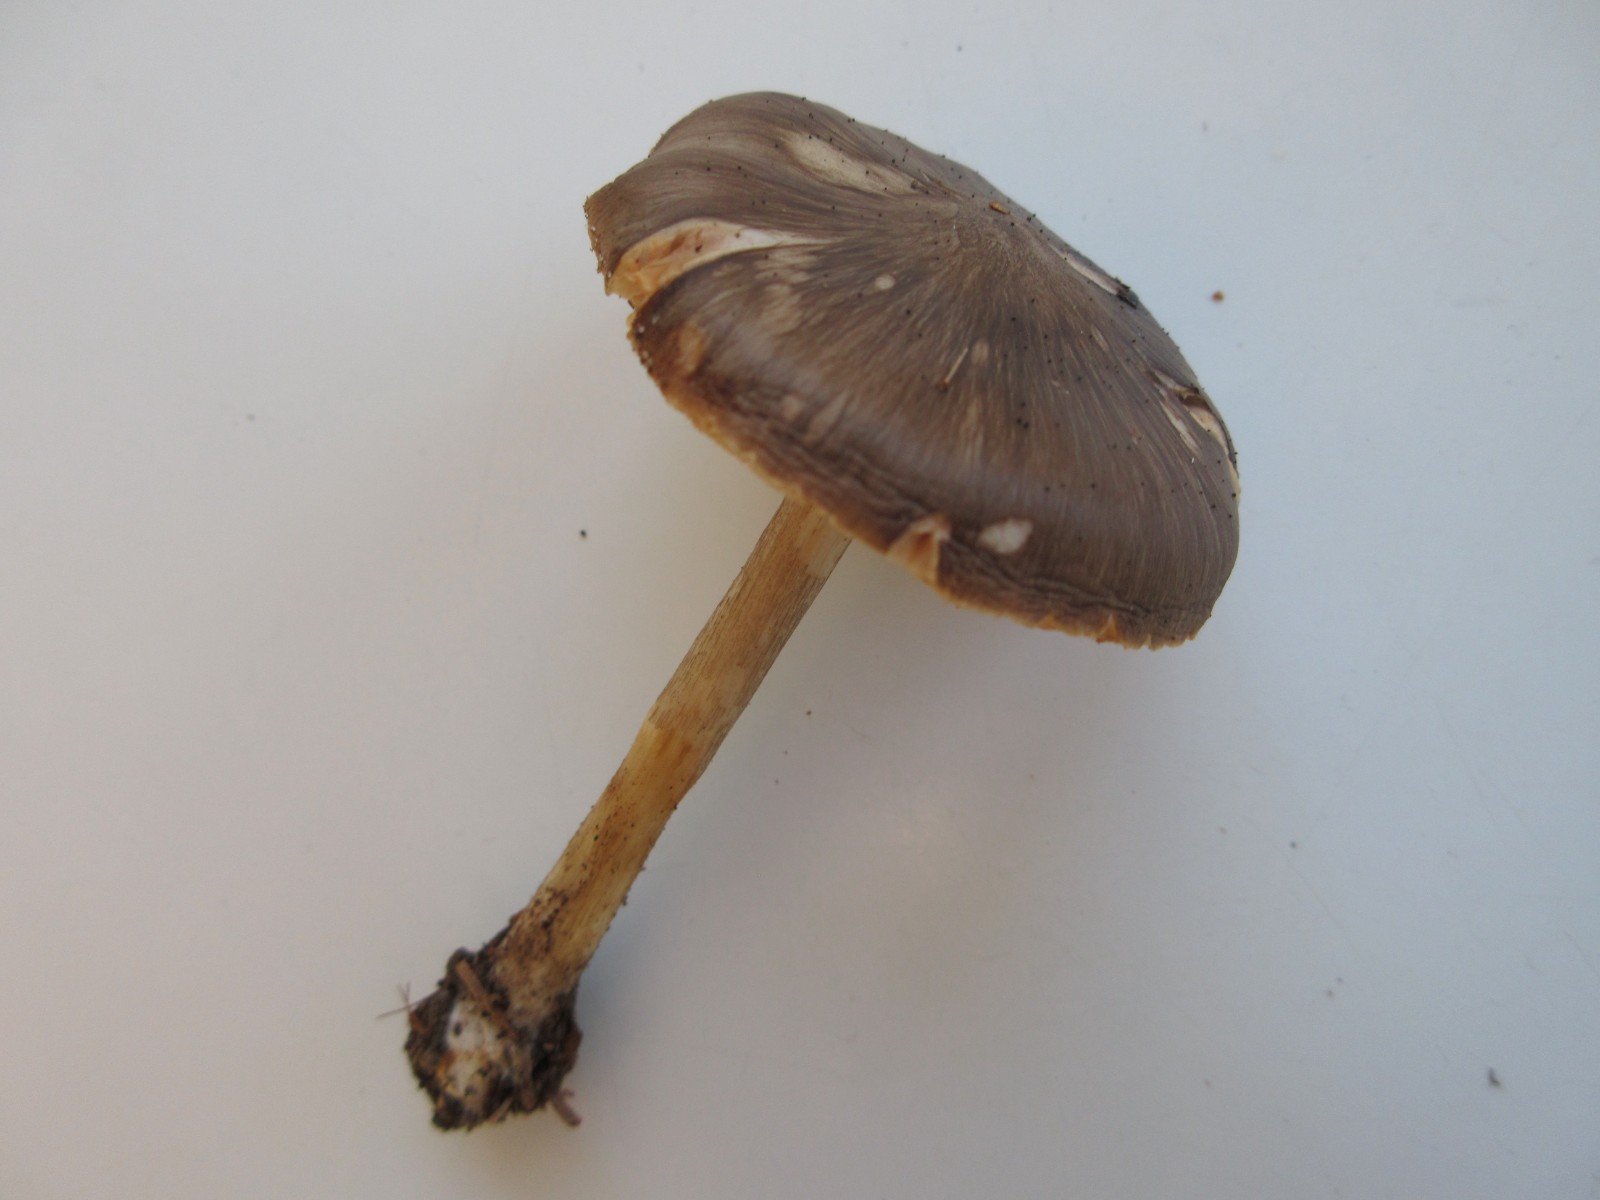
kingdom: Fungi
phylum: Basidiomycota
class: Agaricomycetes
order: Agaricales
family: Pluteaceae
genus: Pluteus
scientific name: Pluteus cervinus
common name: sodfarvet skærmhat
